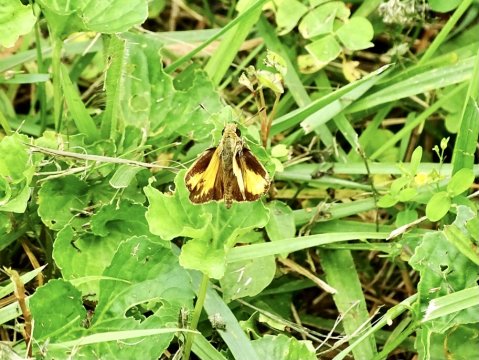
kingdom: Animalia
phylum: Arthropoda
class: Insecta
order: Lepidoptera
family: Hesperiidae
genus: Lon
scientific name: Lon zabulon
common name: Zabulon Skipper
